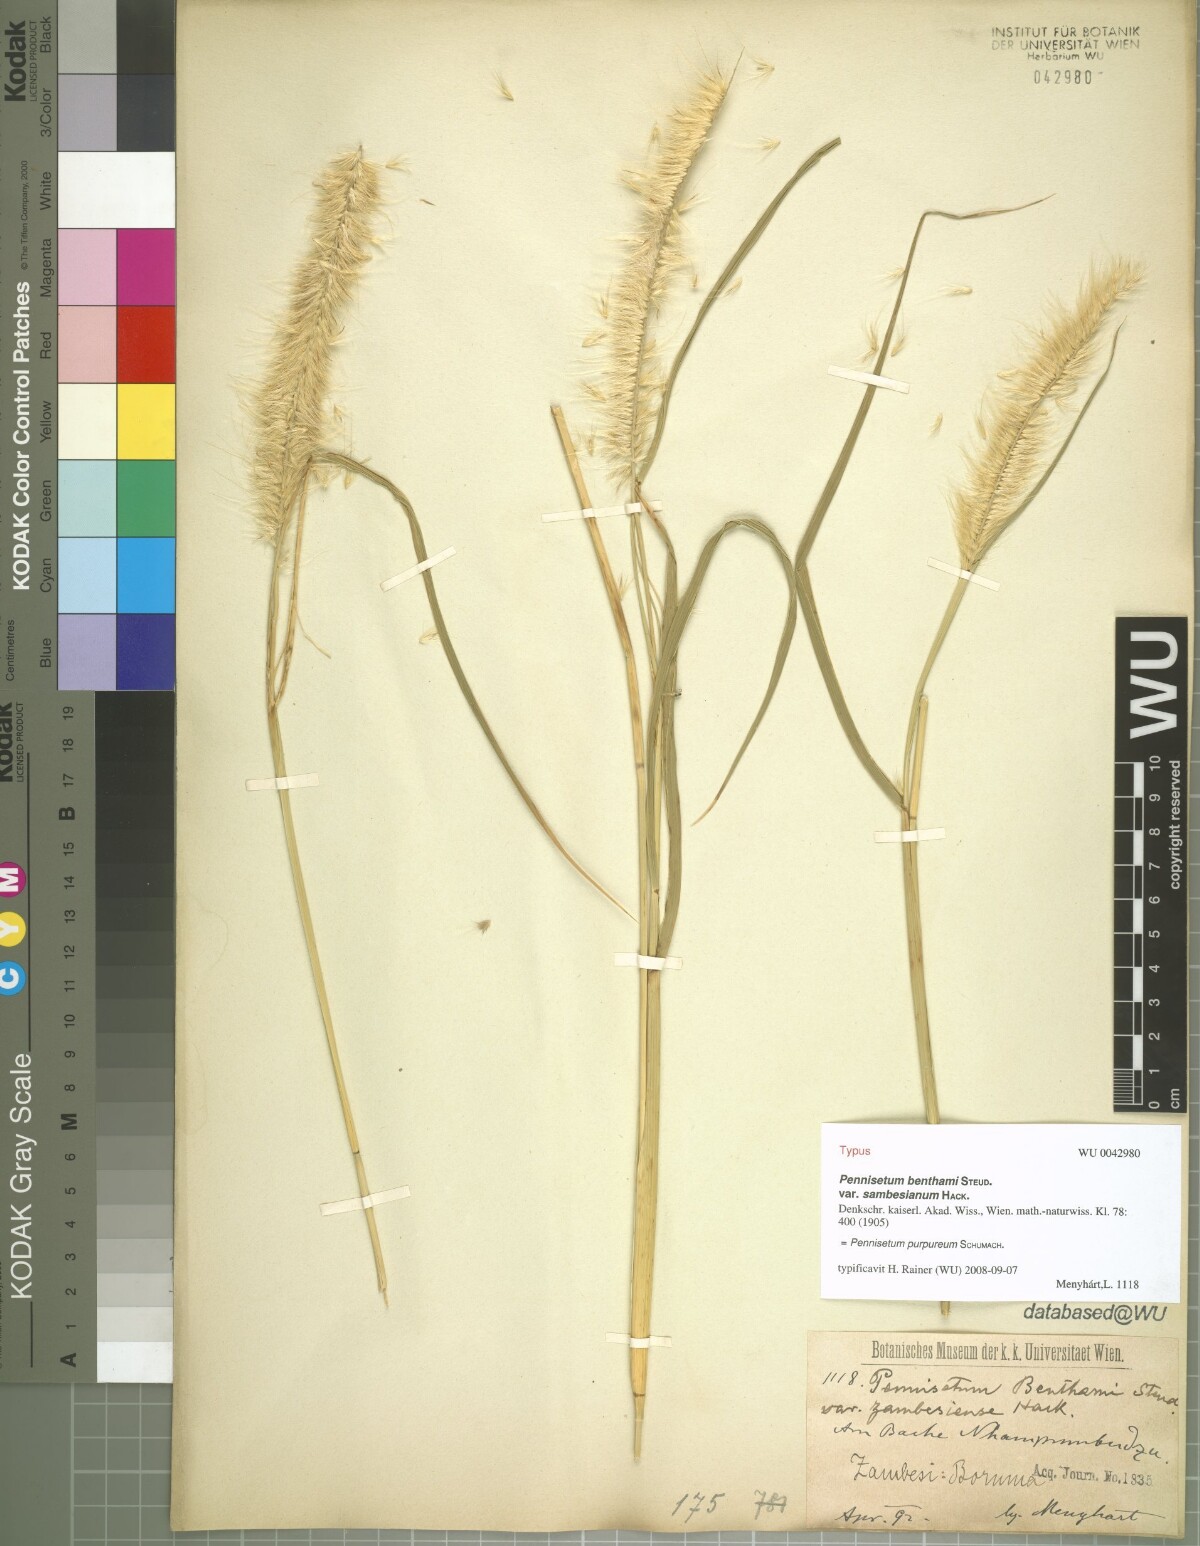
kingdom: Plantae
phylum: Tracheophyta
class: Liliopsida
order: Poales
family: Poaceae
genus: Cenchrus
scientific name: Cenchrus purpureus
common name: Elephant grass
